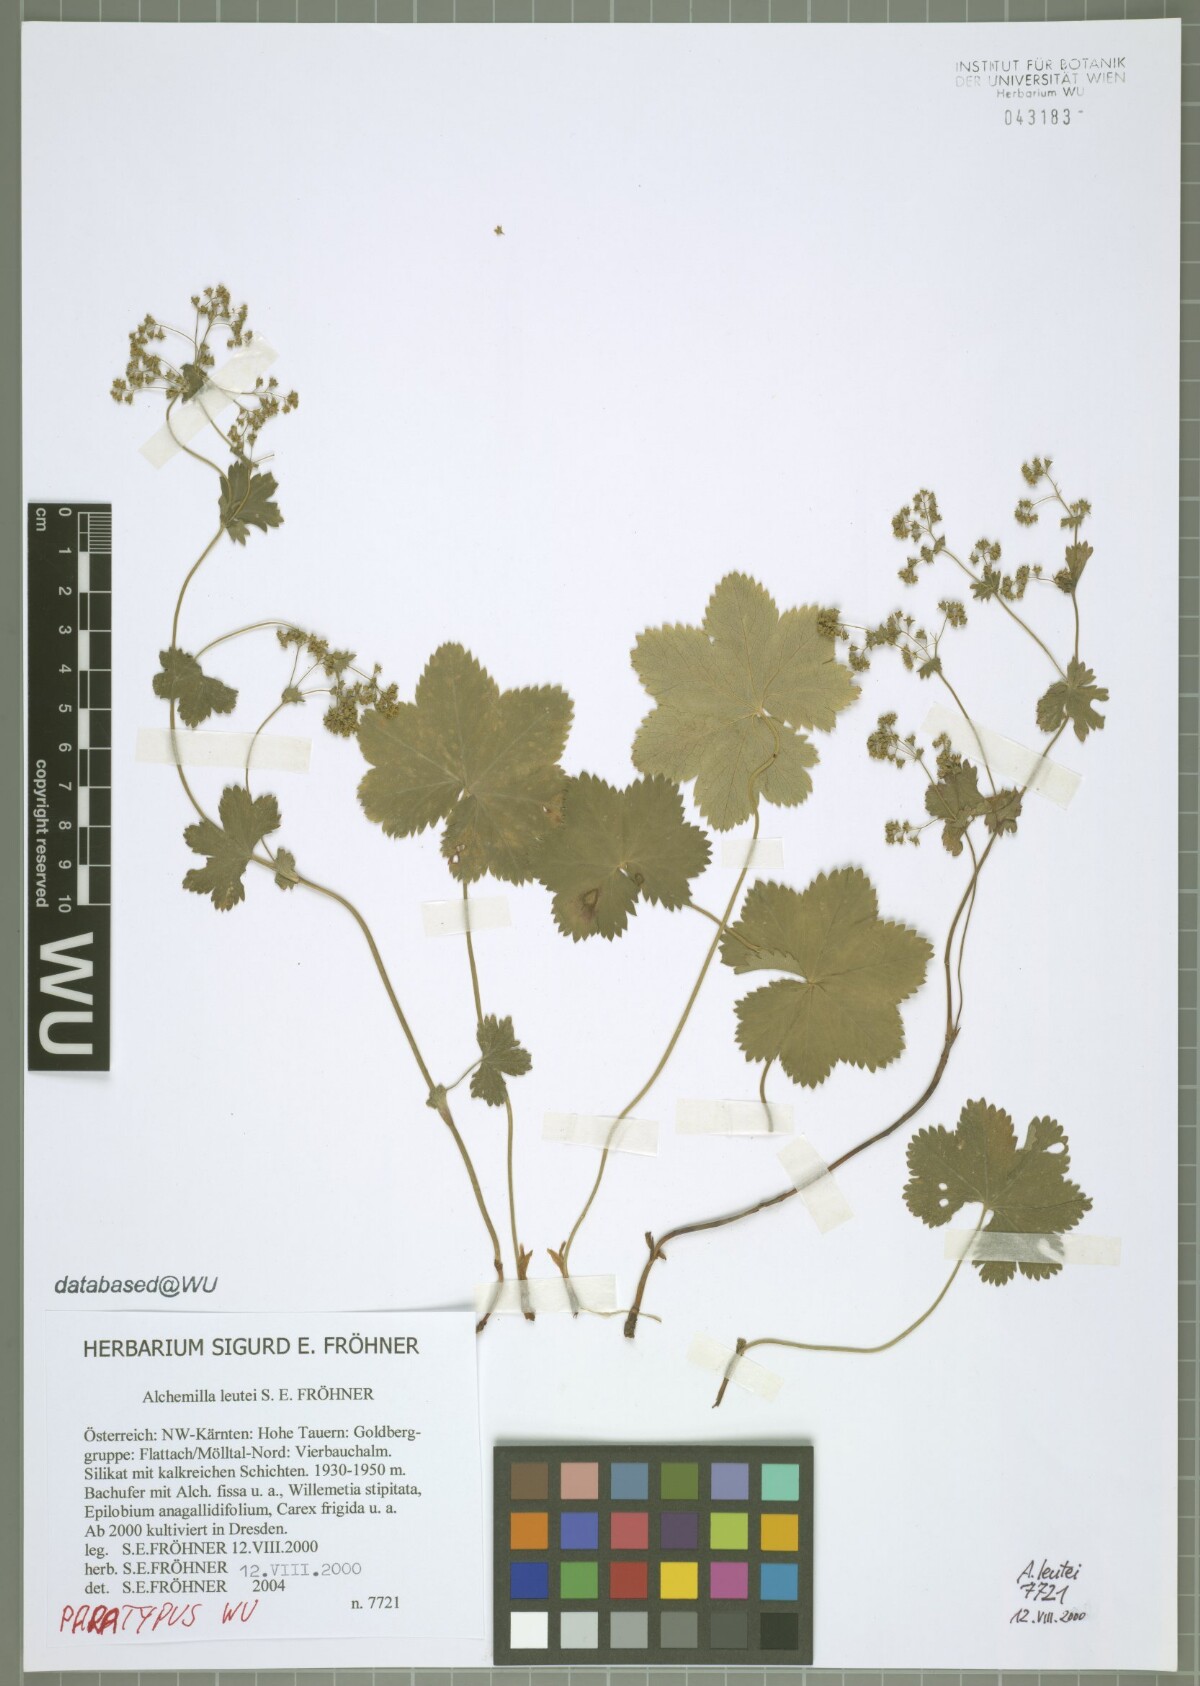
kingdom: Plantae
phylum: Tracheophyta
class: Magnoliopsida
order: Rosales
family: Rosaceae
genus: Alchemilla
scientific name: Alchemilla leutei
